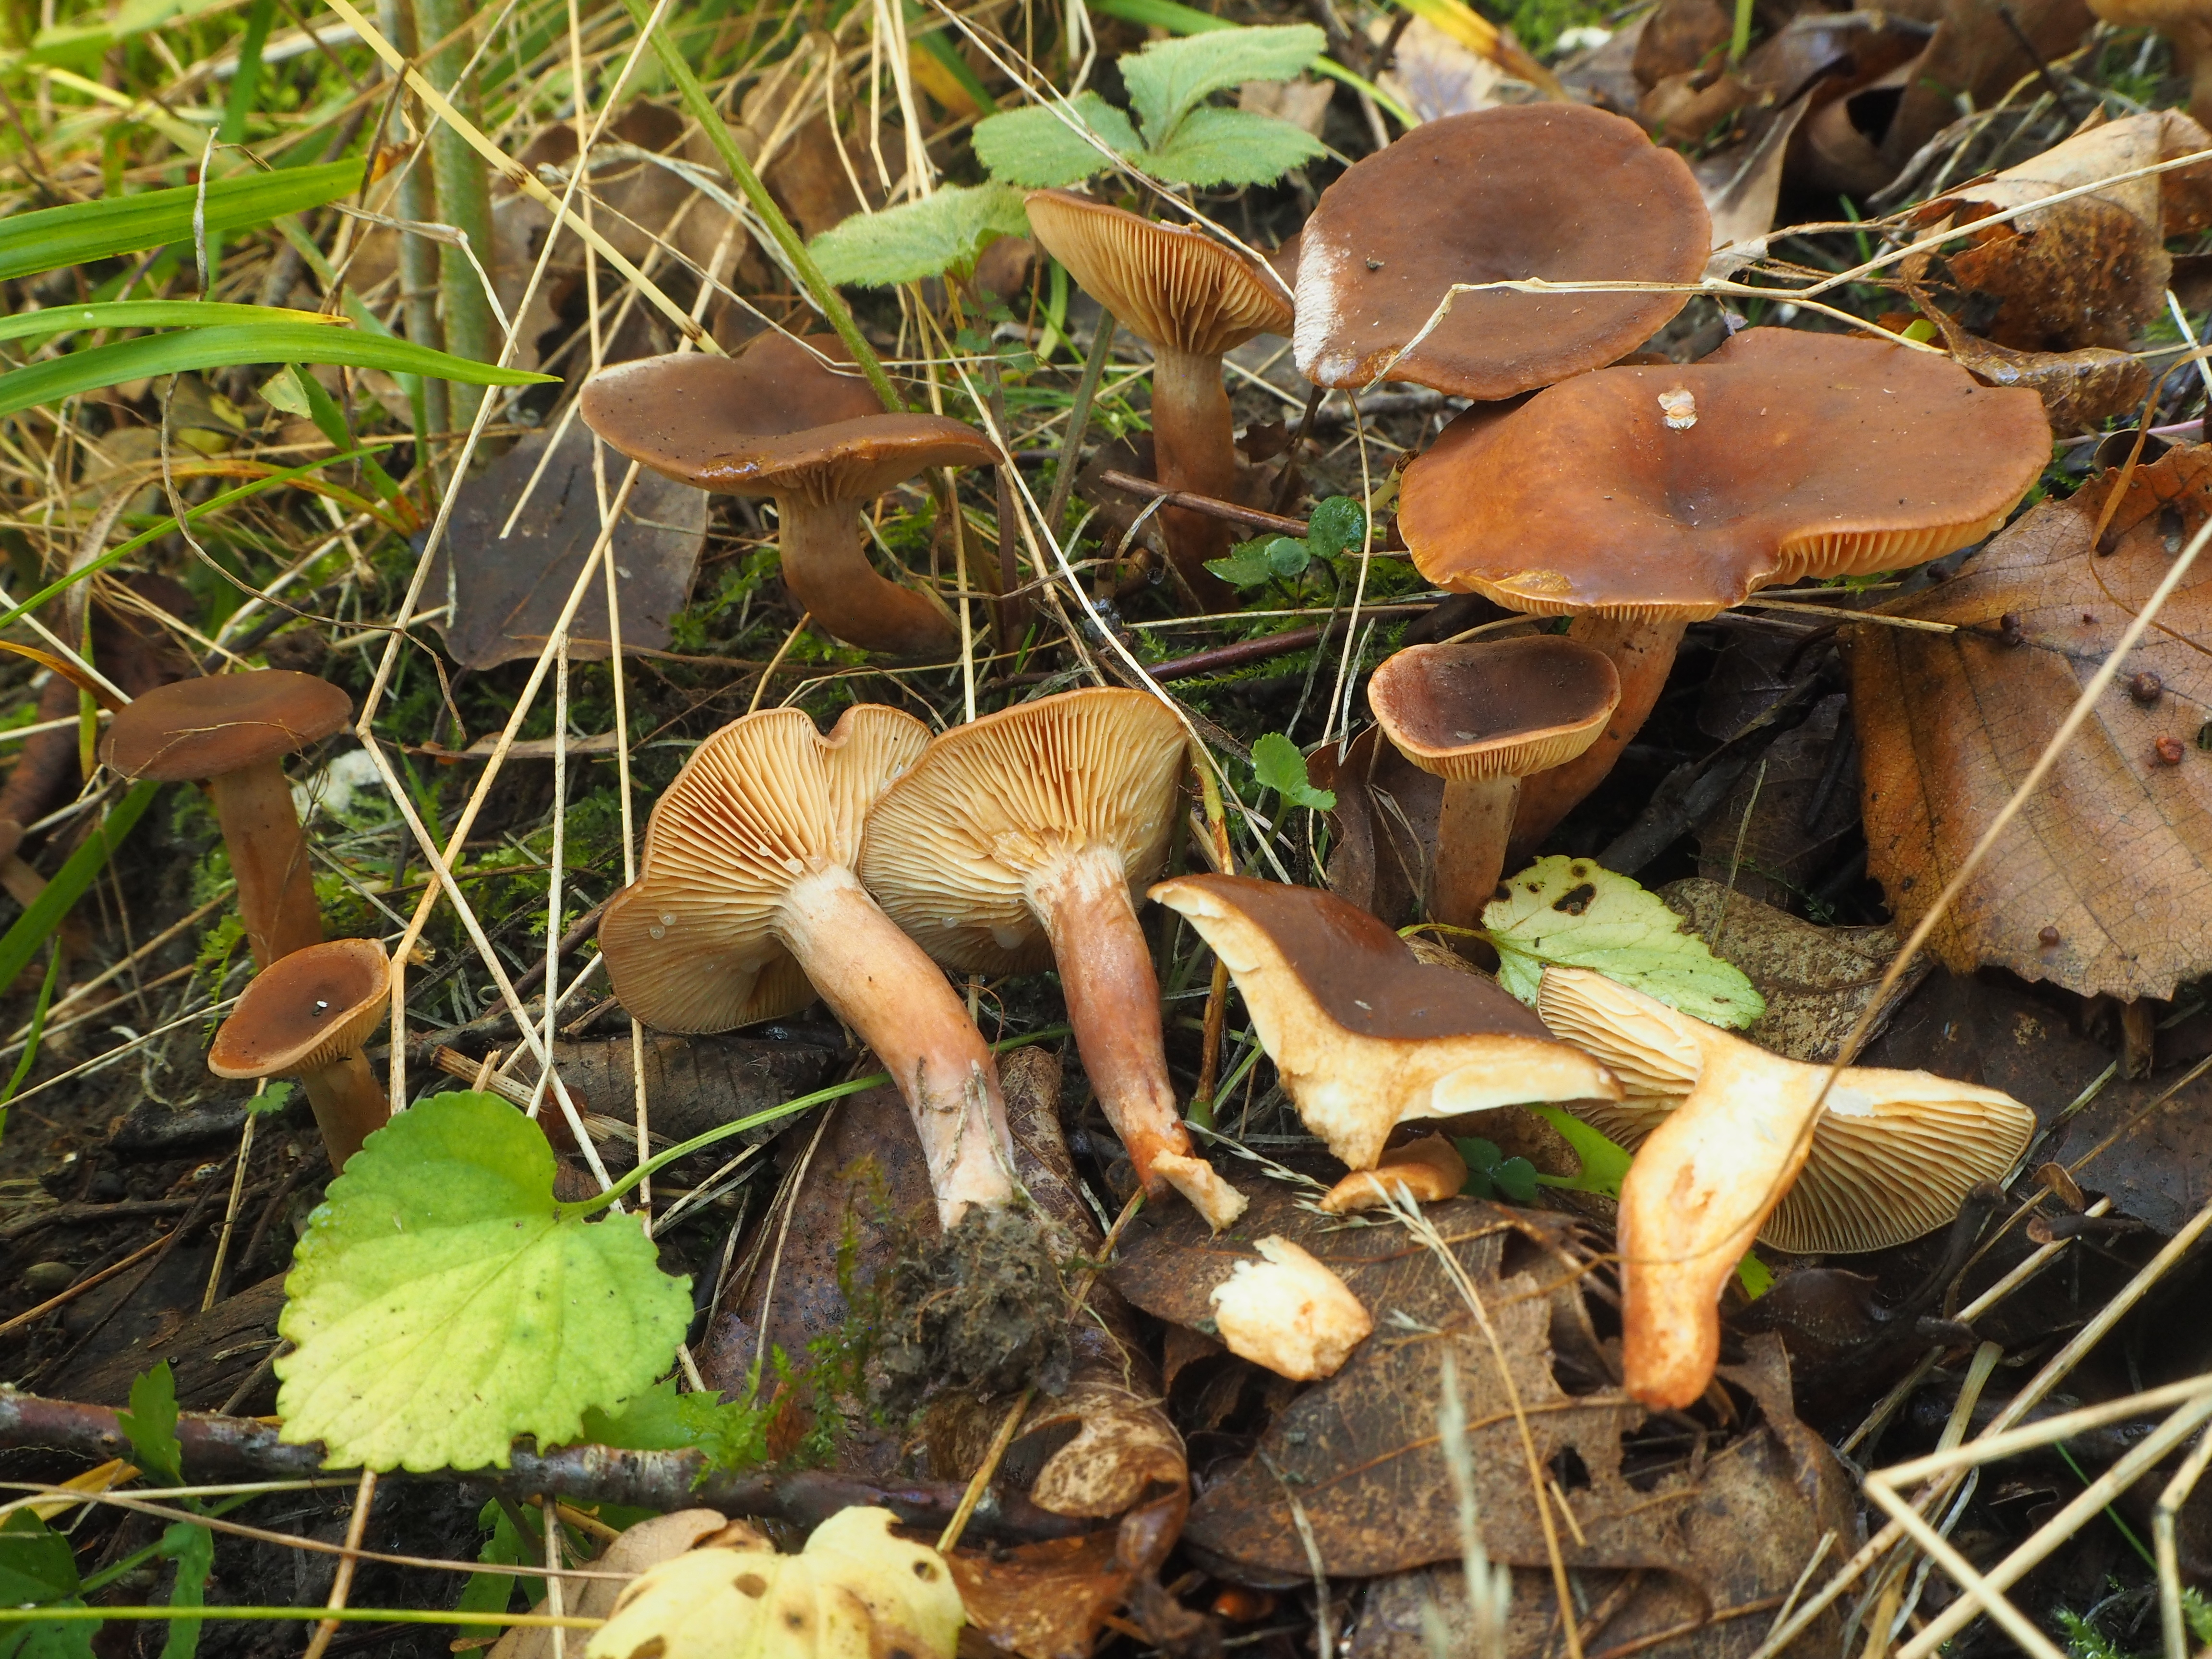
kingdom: Fungi
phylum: Basidiomycota
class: Agaricomycetes
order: Russulales
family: Russulaceae
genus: Lactarius
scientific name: Lactarius serifluus
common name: Watery milk-cap
